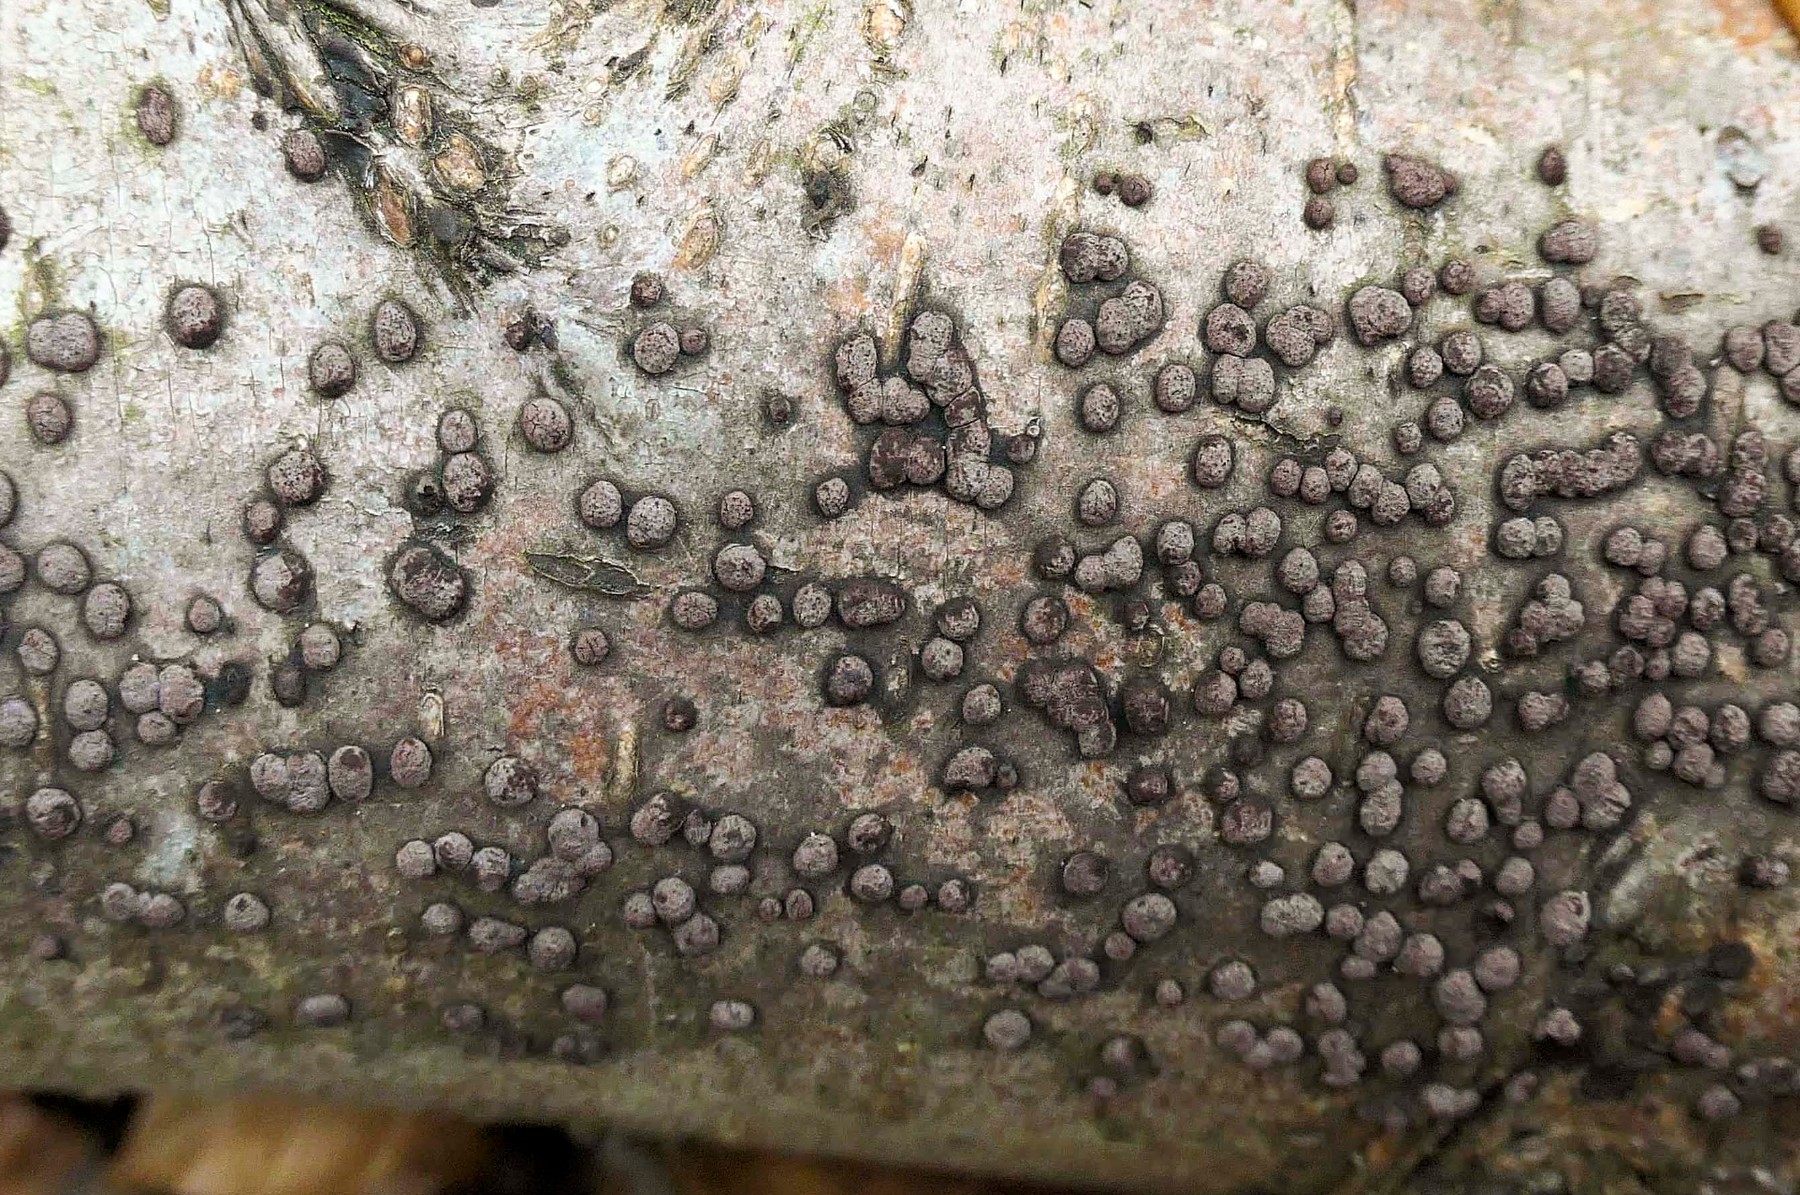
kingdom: Fungi
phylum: Ascomycota
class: Sordariomycetes
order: Xylariales
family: Hypoxylaceae
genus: Hypoxylon
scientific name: Hypoxylon
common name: kulbær
